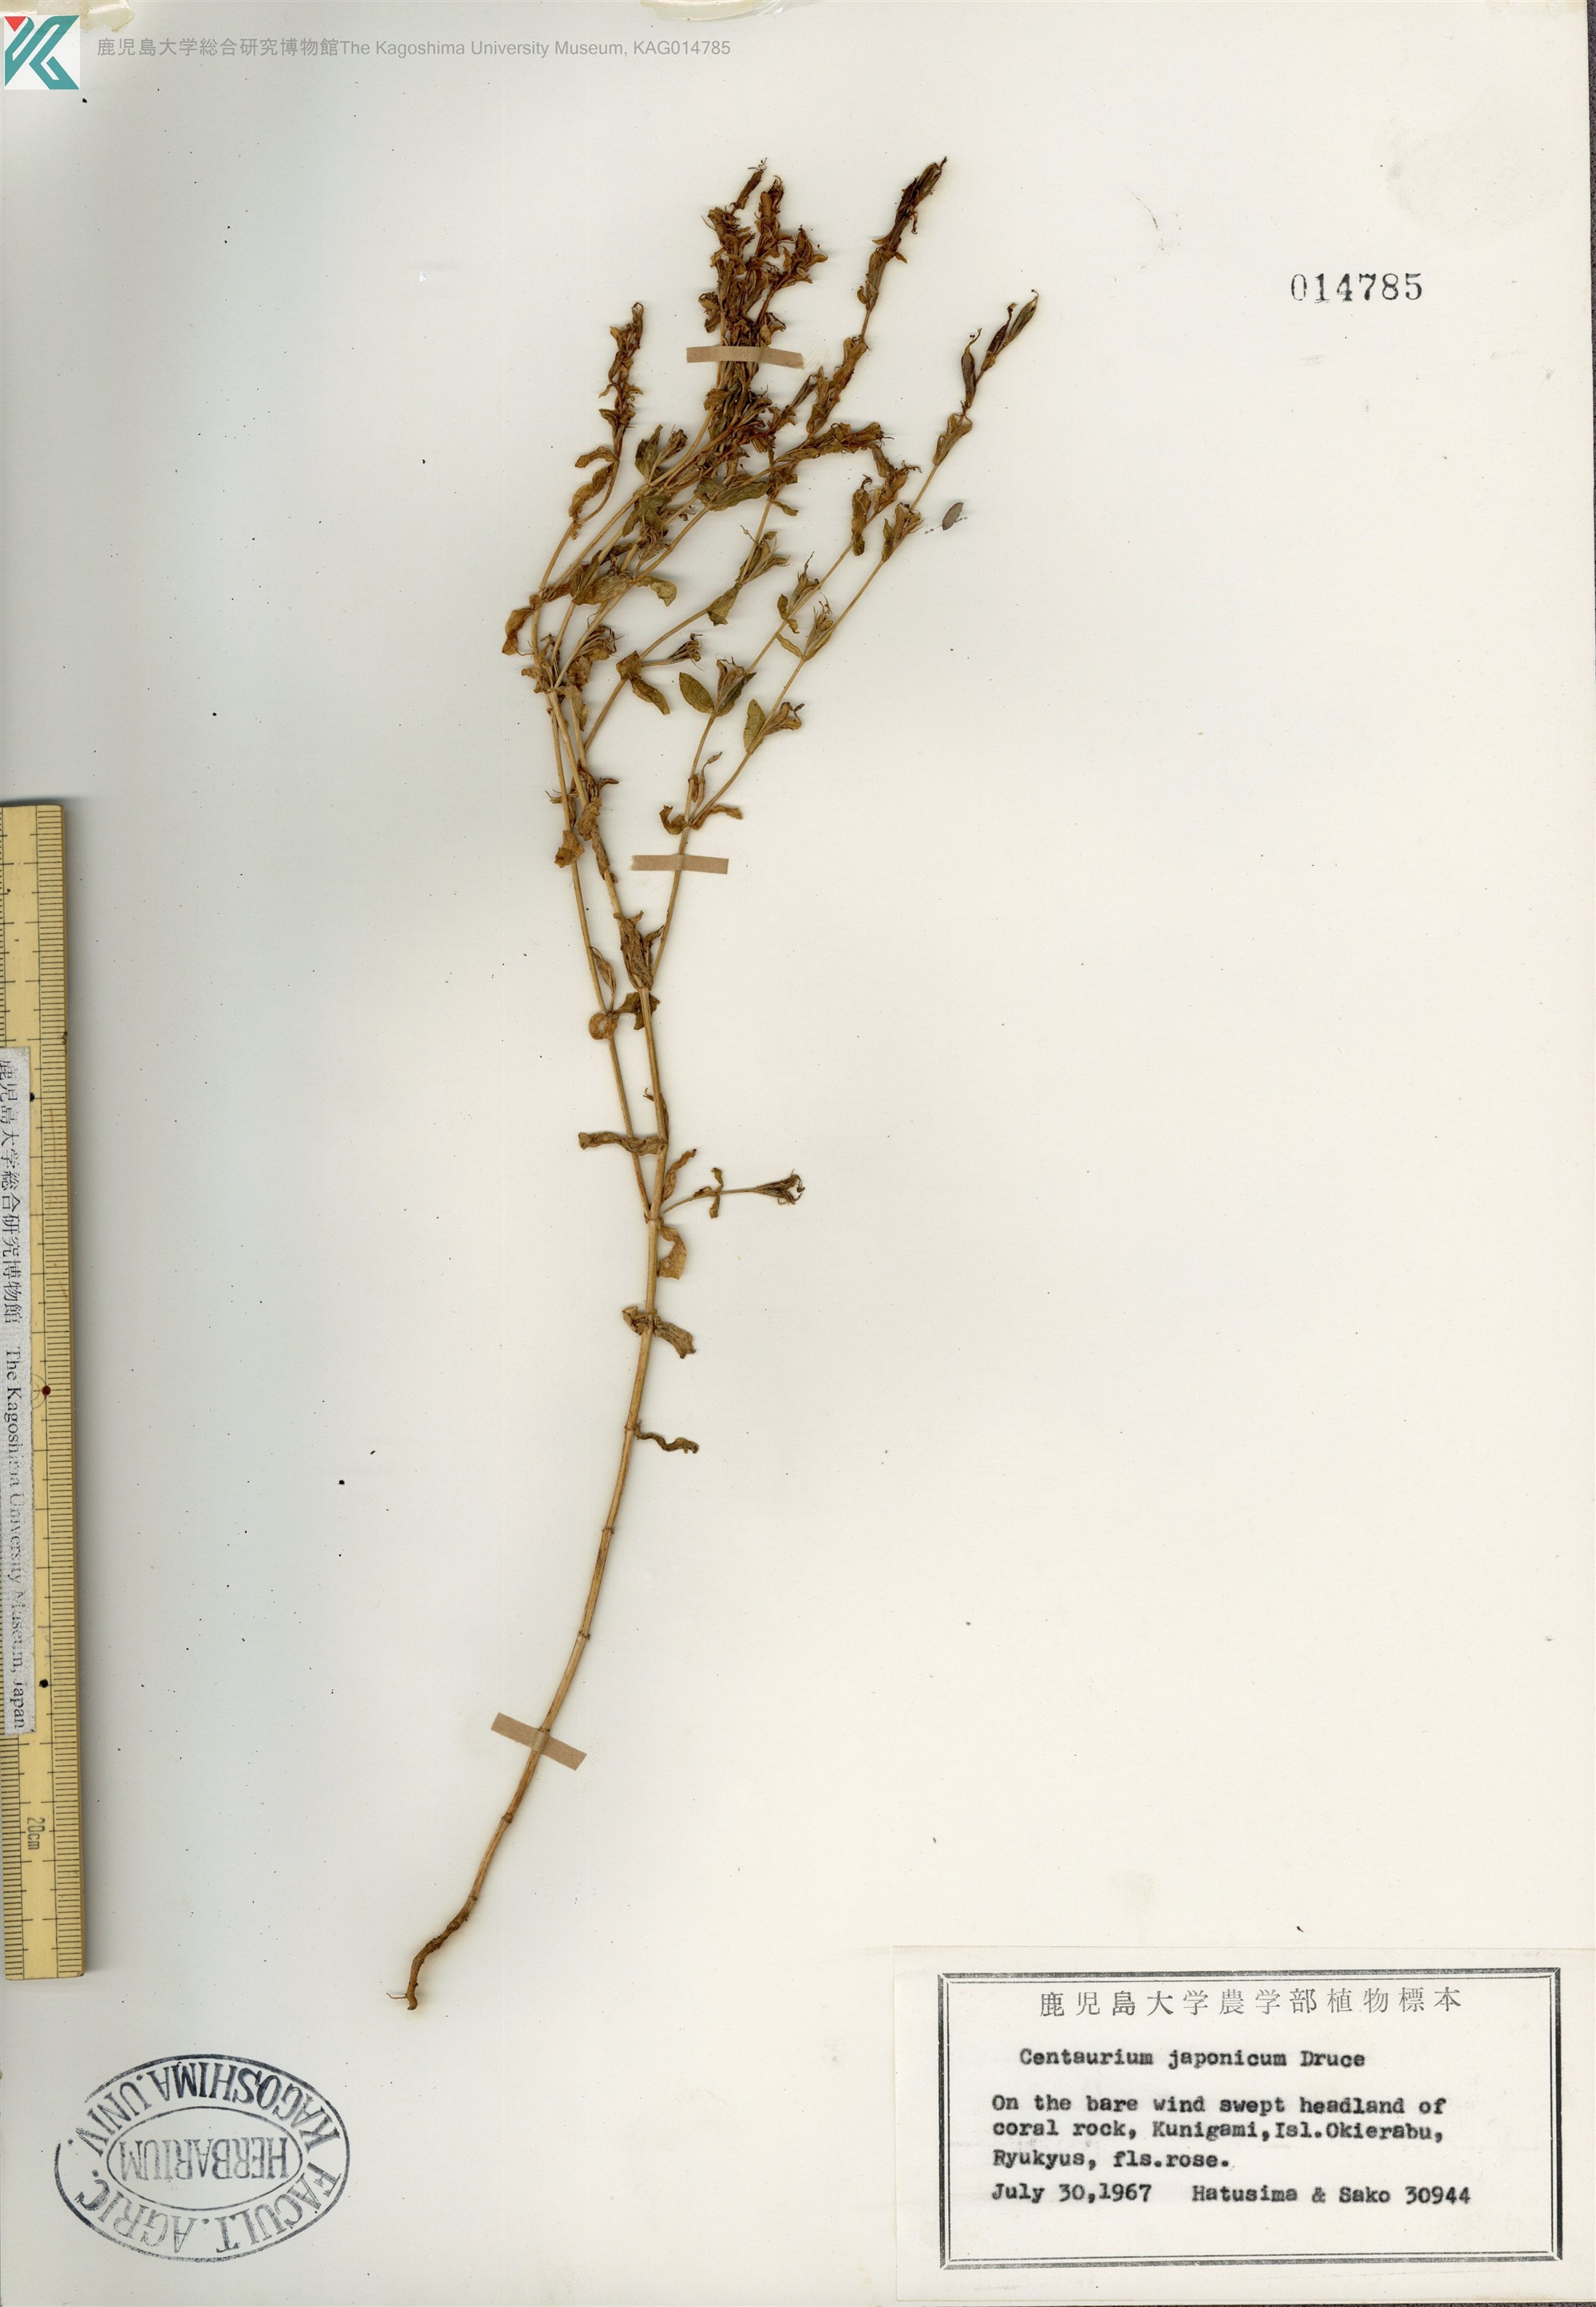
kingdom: Plantae
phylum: Tracheophyta
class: Magnoliopsida
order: Gentianales
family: Gentianaceae
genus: Schenkia
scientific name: Schenkia japonica
